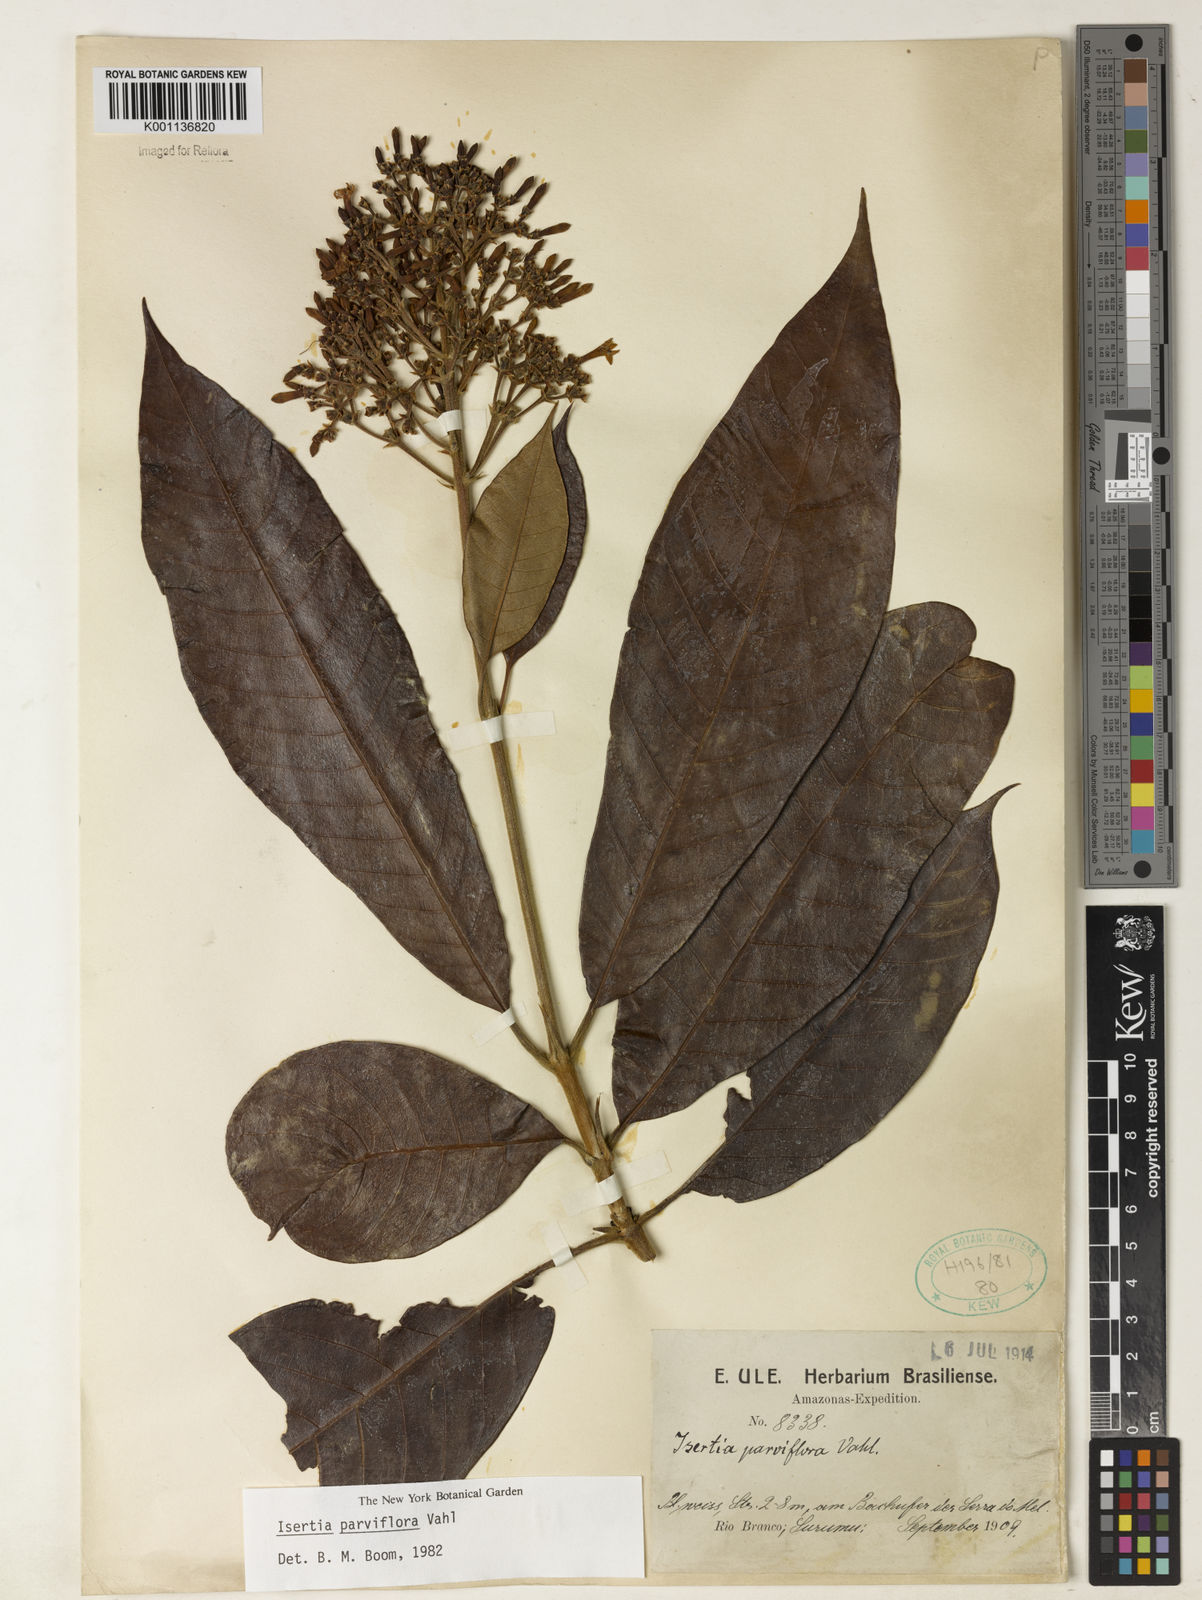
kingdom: Plantae
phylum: Tracheophyta
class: Magnoliopsida
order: Gentianales
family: Rubiaceae
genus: Isertia
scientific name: Isertia parviflora
